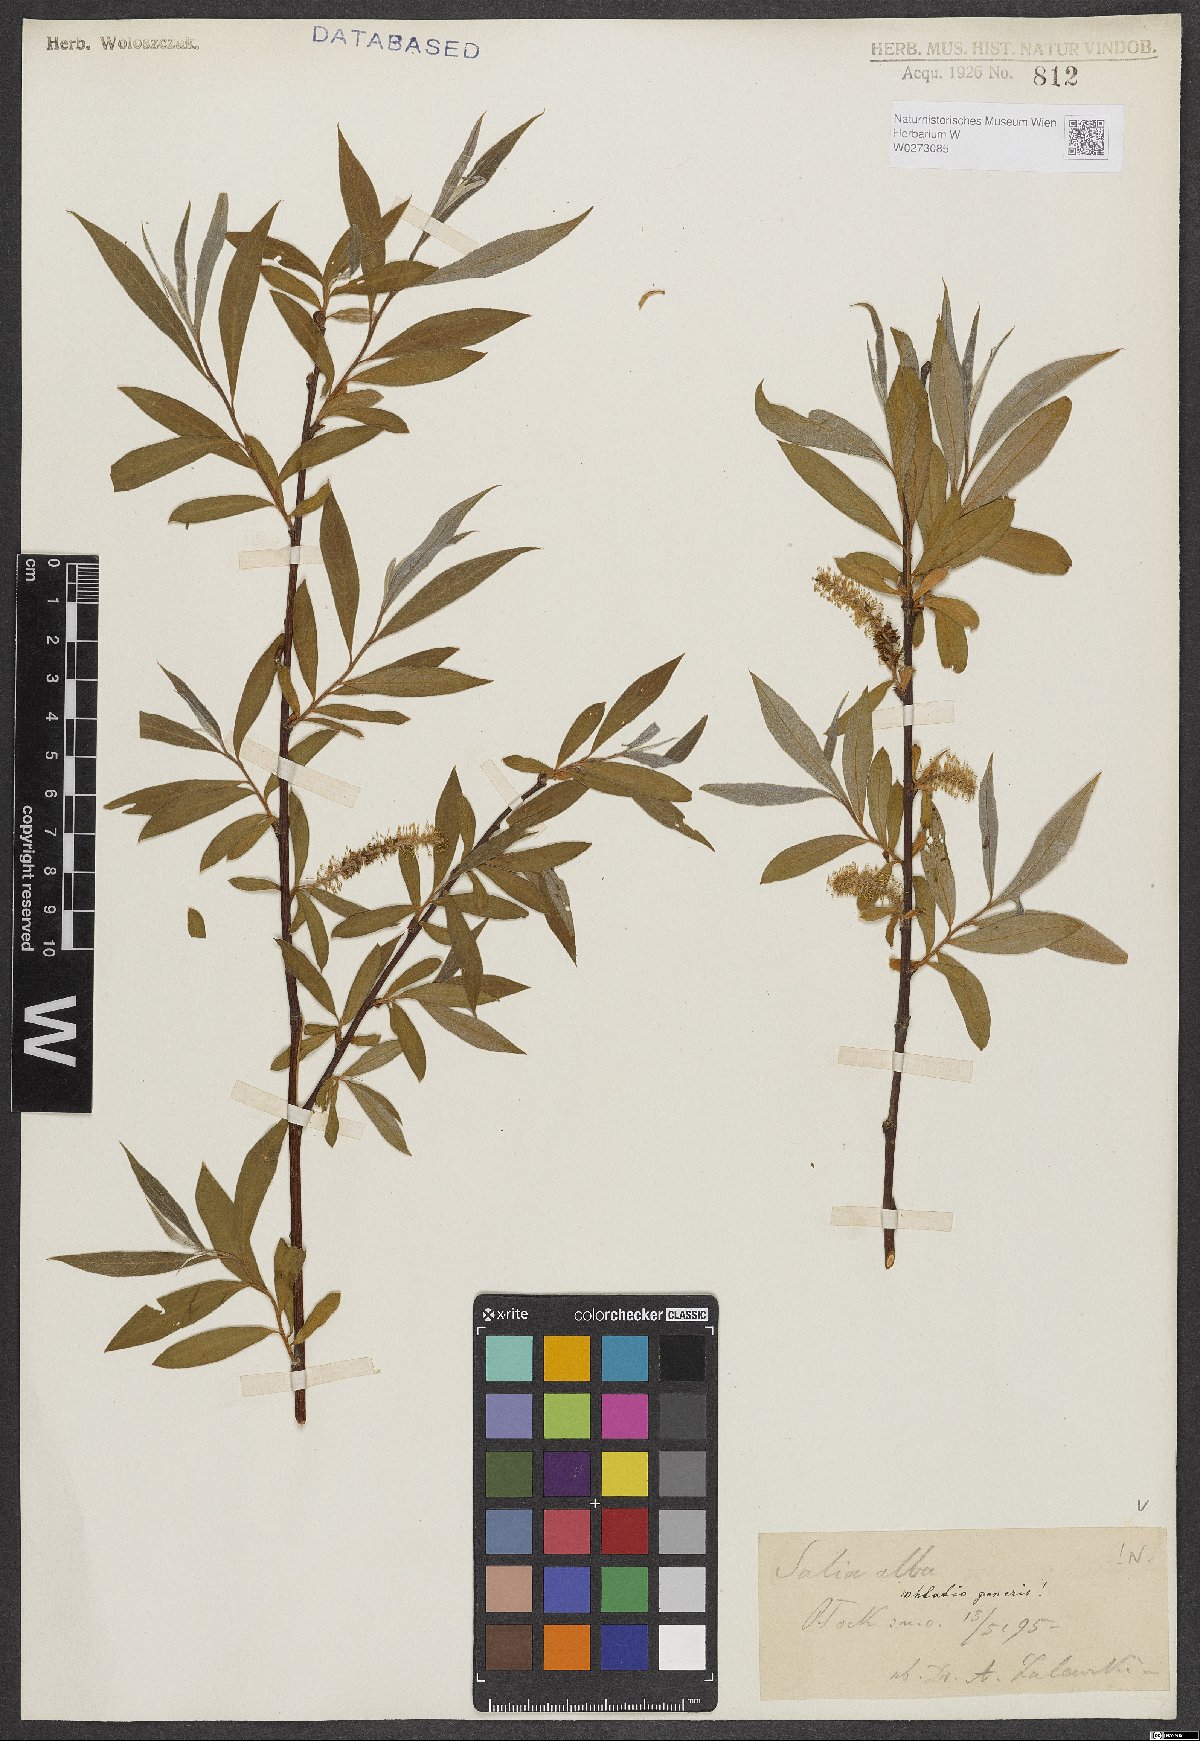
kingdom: Plantae
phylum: Tracheophyta
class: Magnoliopsida
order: Malpighiales
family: Salicaceae
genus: Salix
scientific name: Salix alba
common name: White willow
